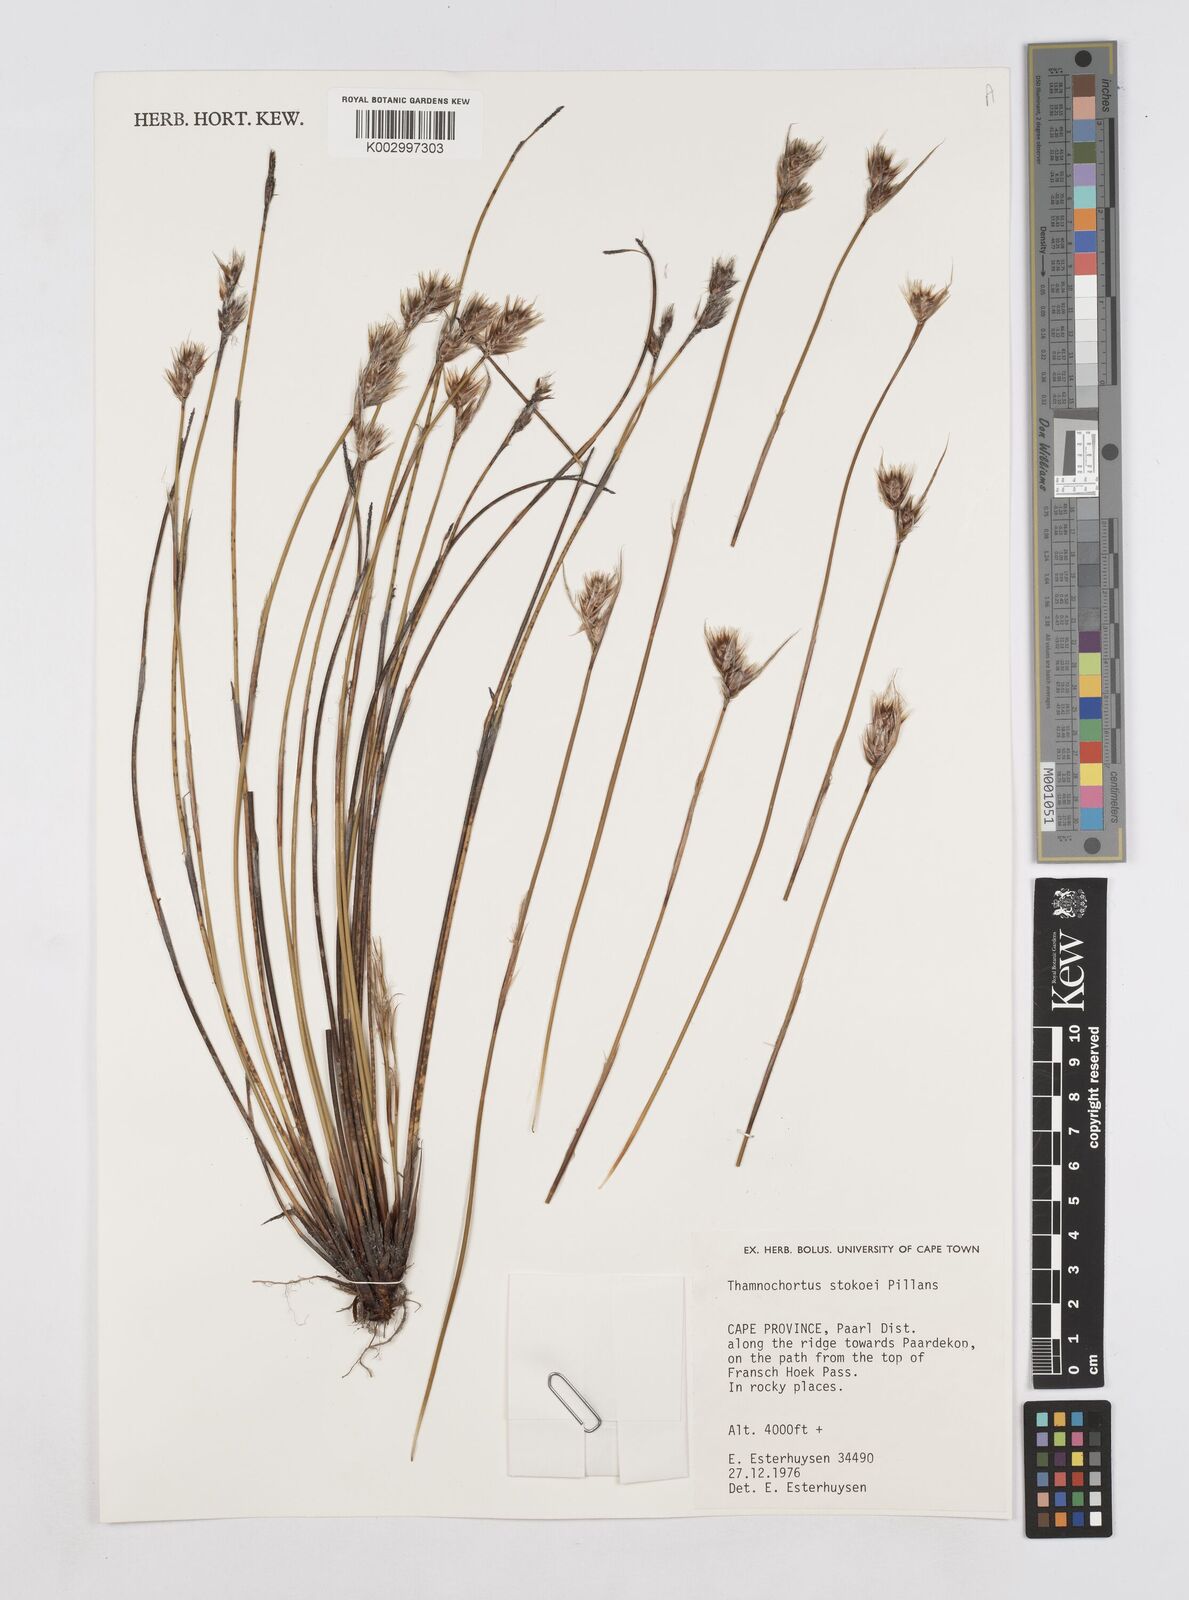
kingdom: Plantae
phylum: Tracheophyta
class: Liliopsida
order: Poales
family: Restionaceae
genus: Thamnochortus
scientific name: Thamnochortus stokoei
